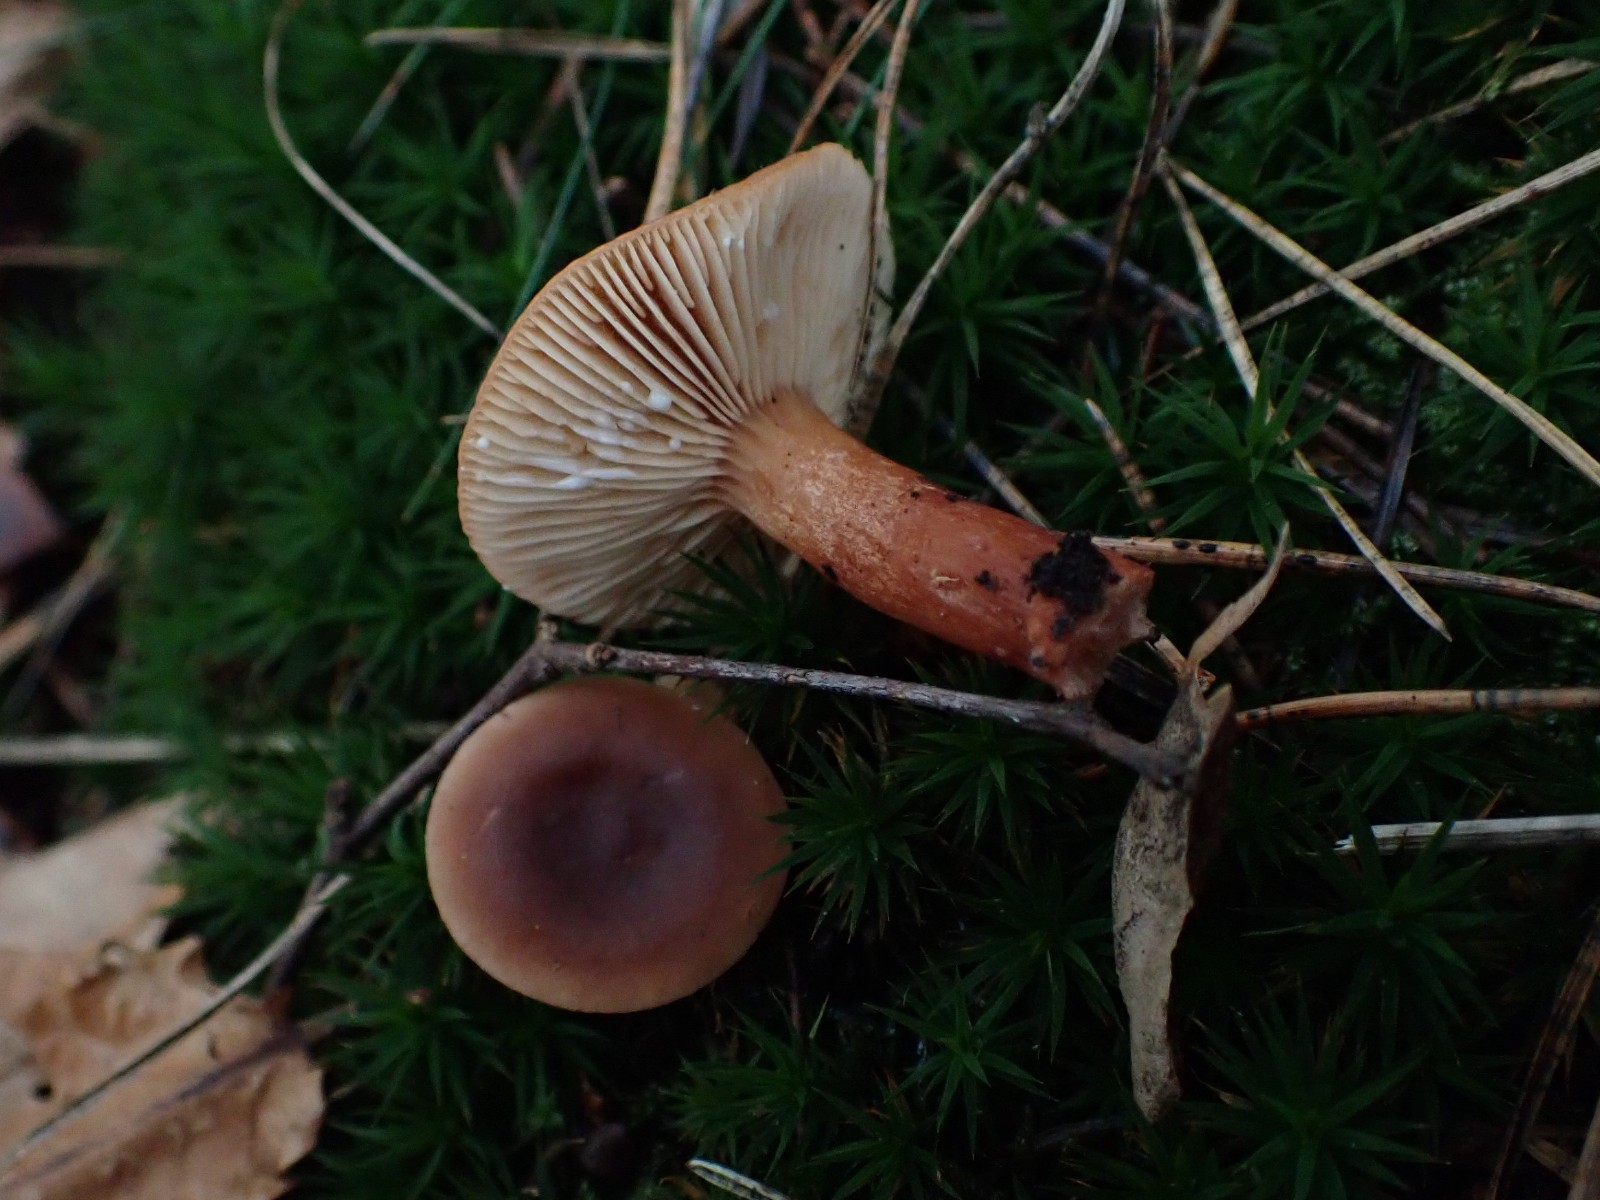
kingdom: Fungi
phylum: Basidiomycota
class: Agaricomycetes
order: Russulales
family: Russulaceae
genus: Lactarius
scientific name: Lactarius aurantiacus
